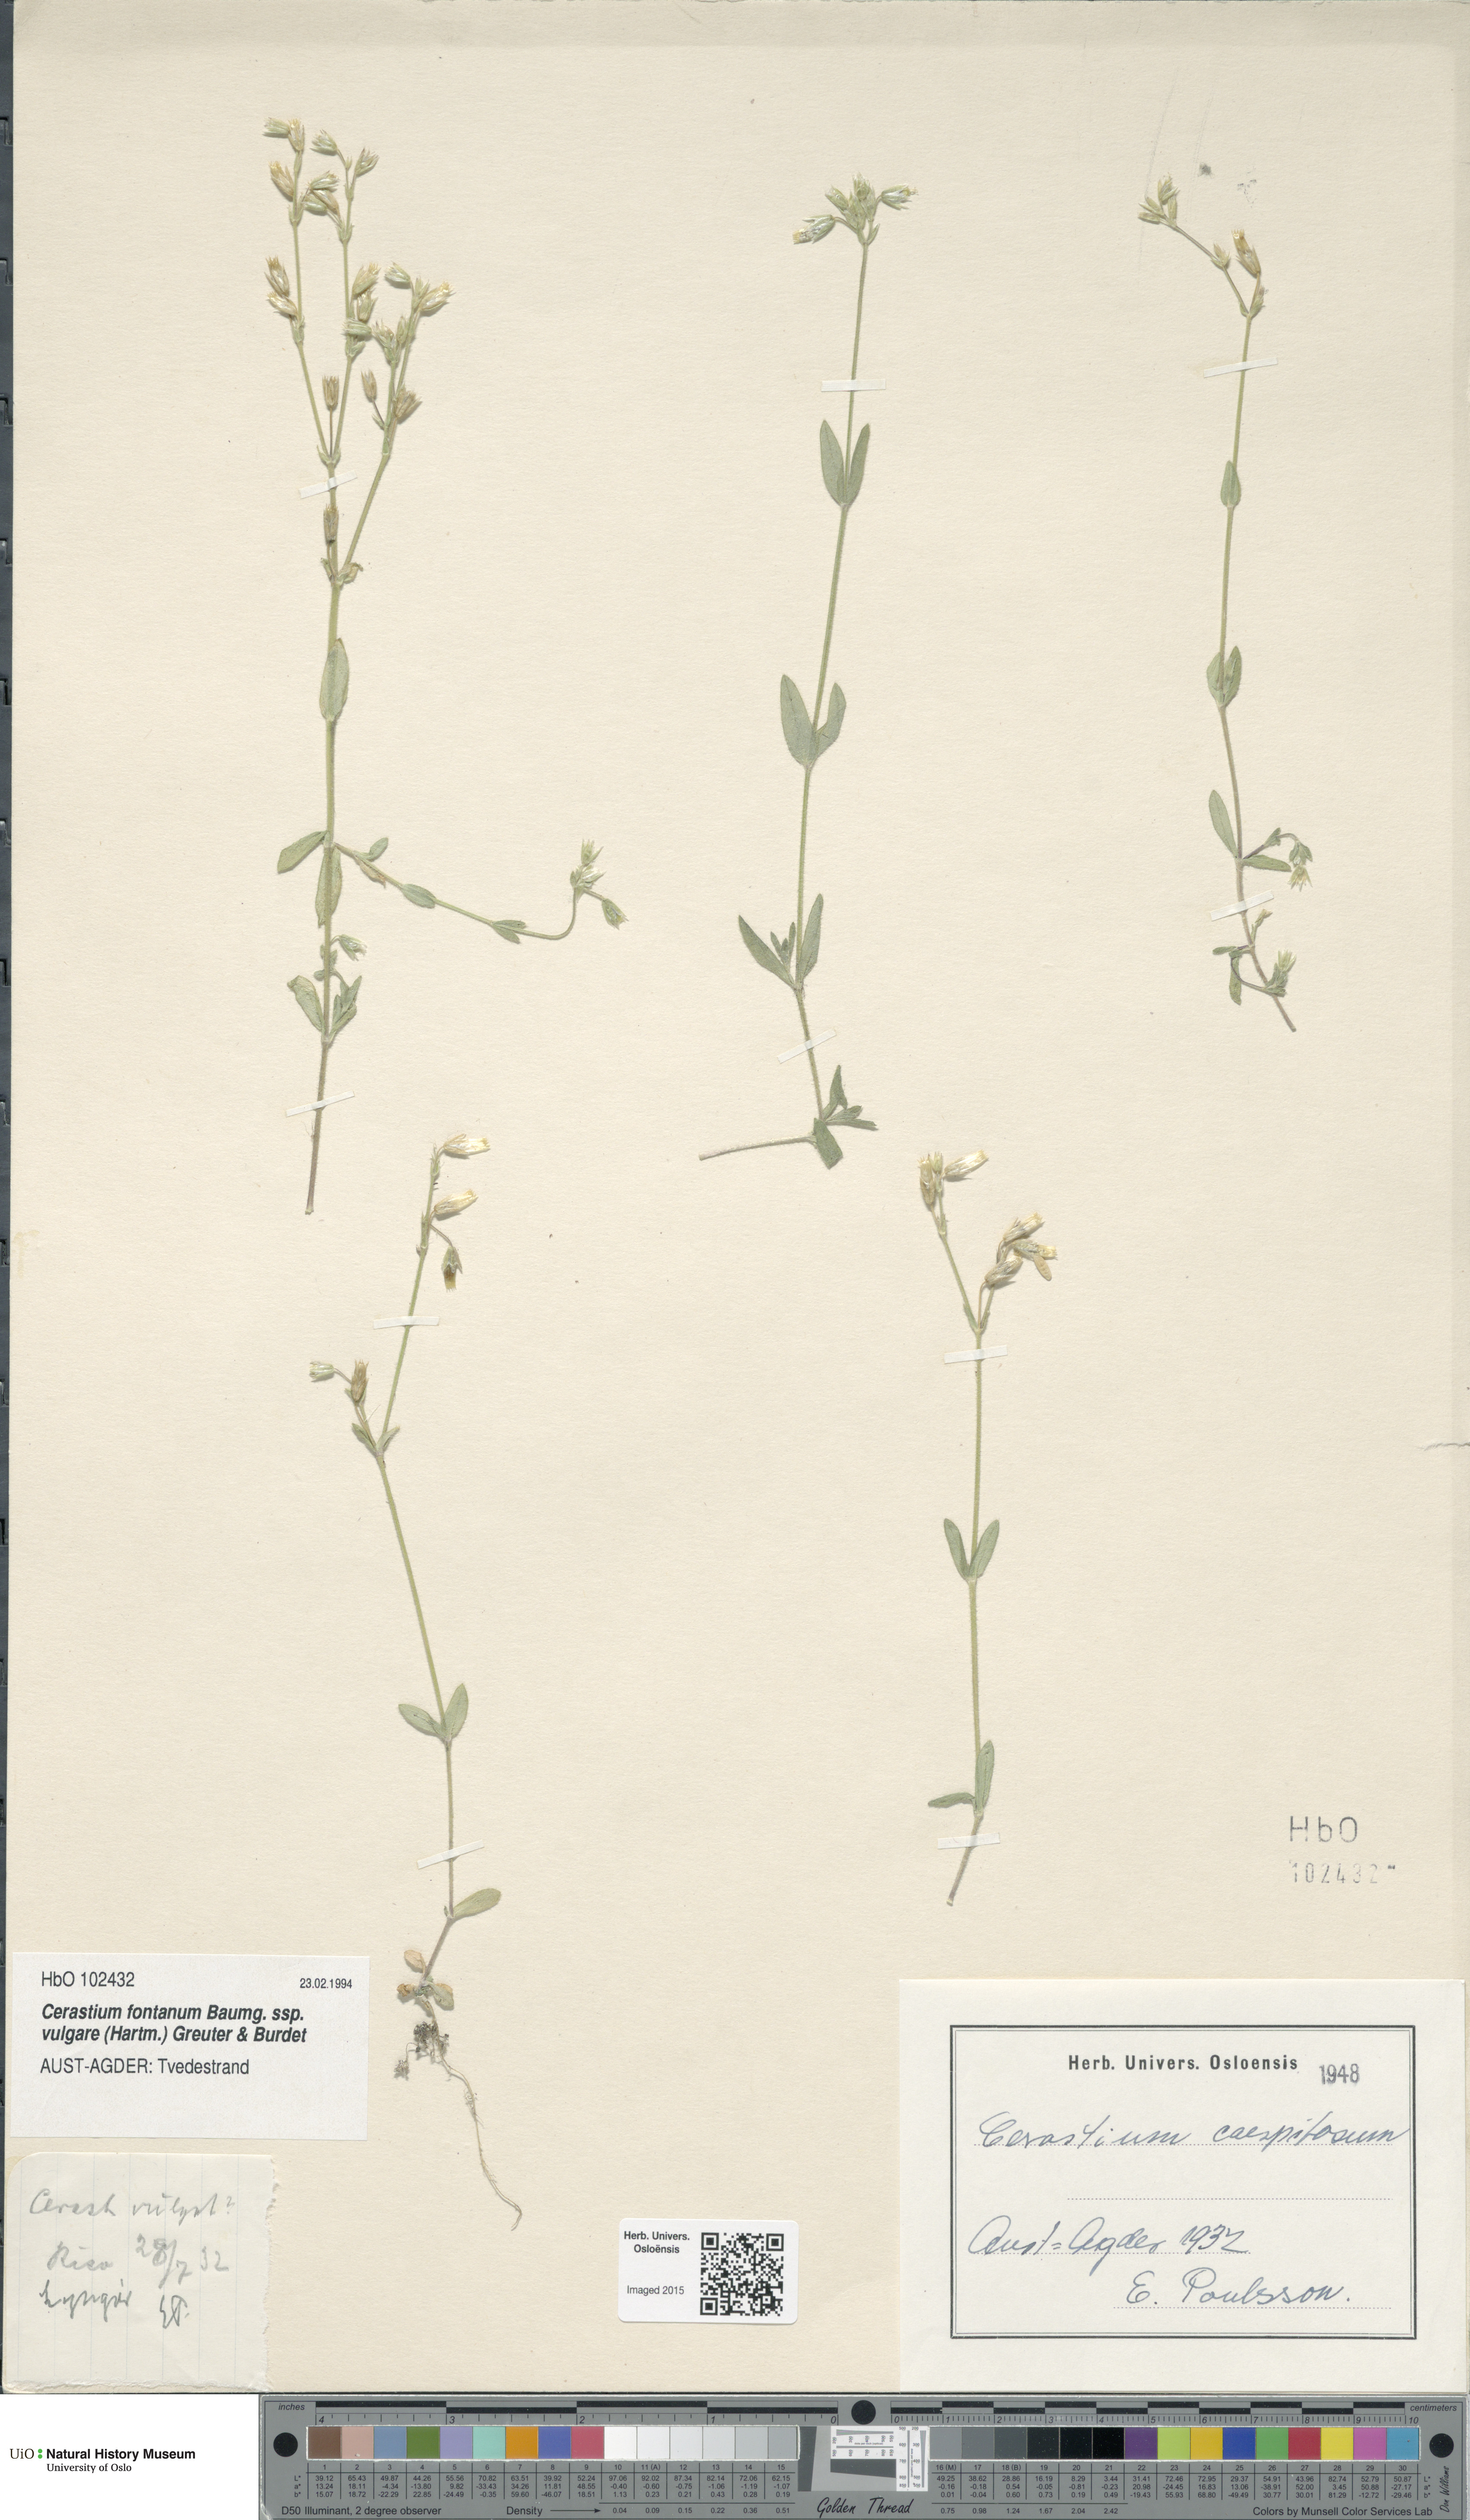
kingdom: Plantae
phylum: Tracheophyta
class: Magnoliopsida
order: Caryophyllales
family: Caryophyllaceae
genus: Cerastium
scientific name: Cerastium holosteoides
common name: Big chickweed
